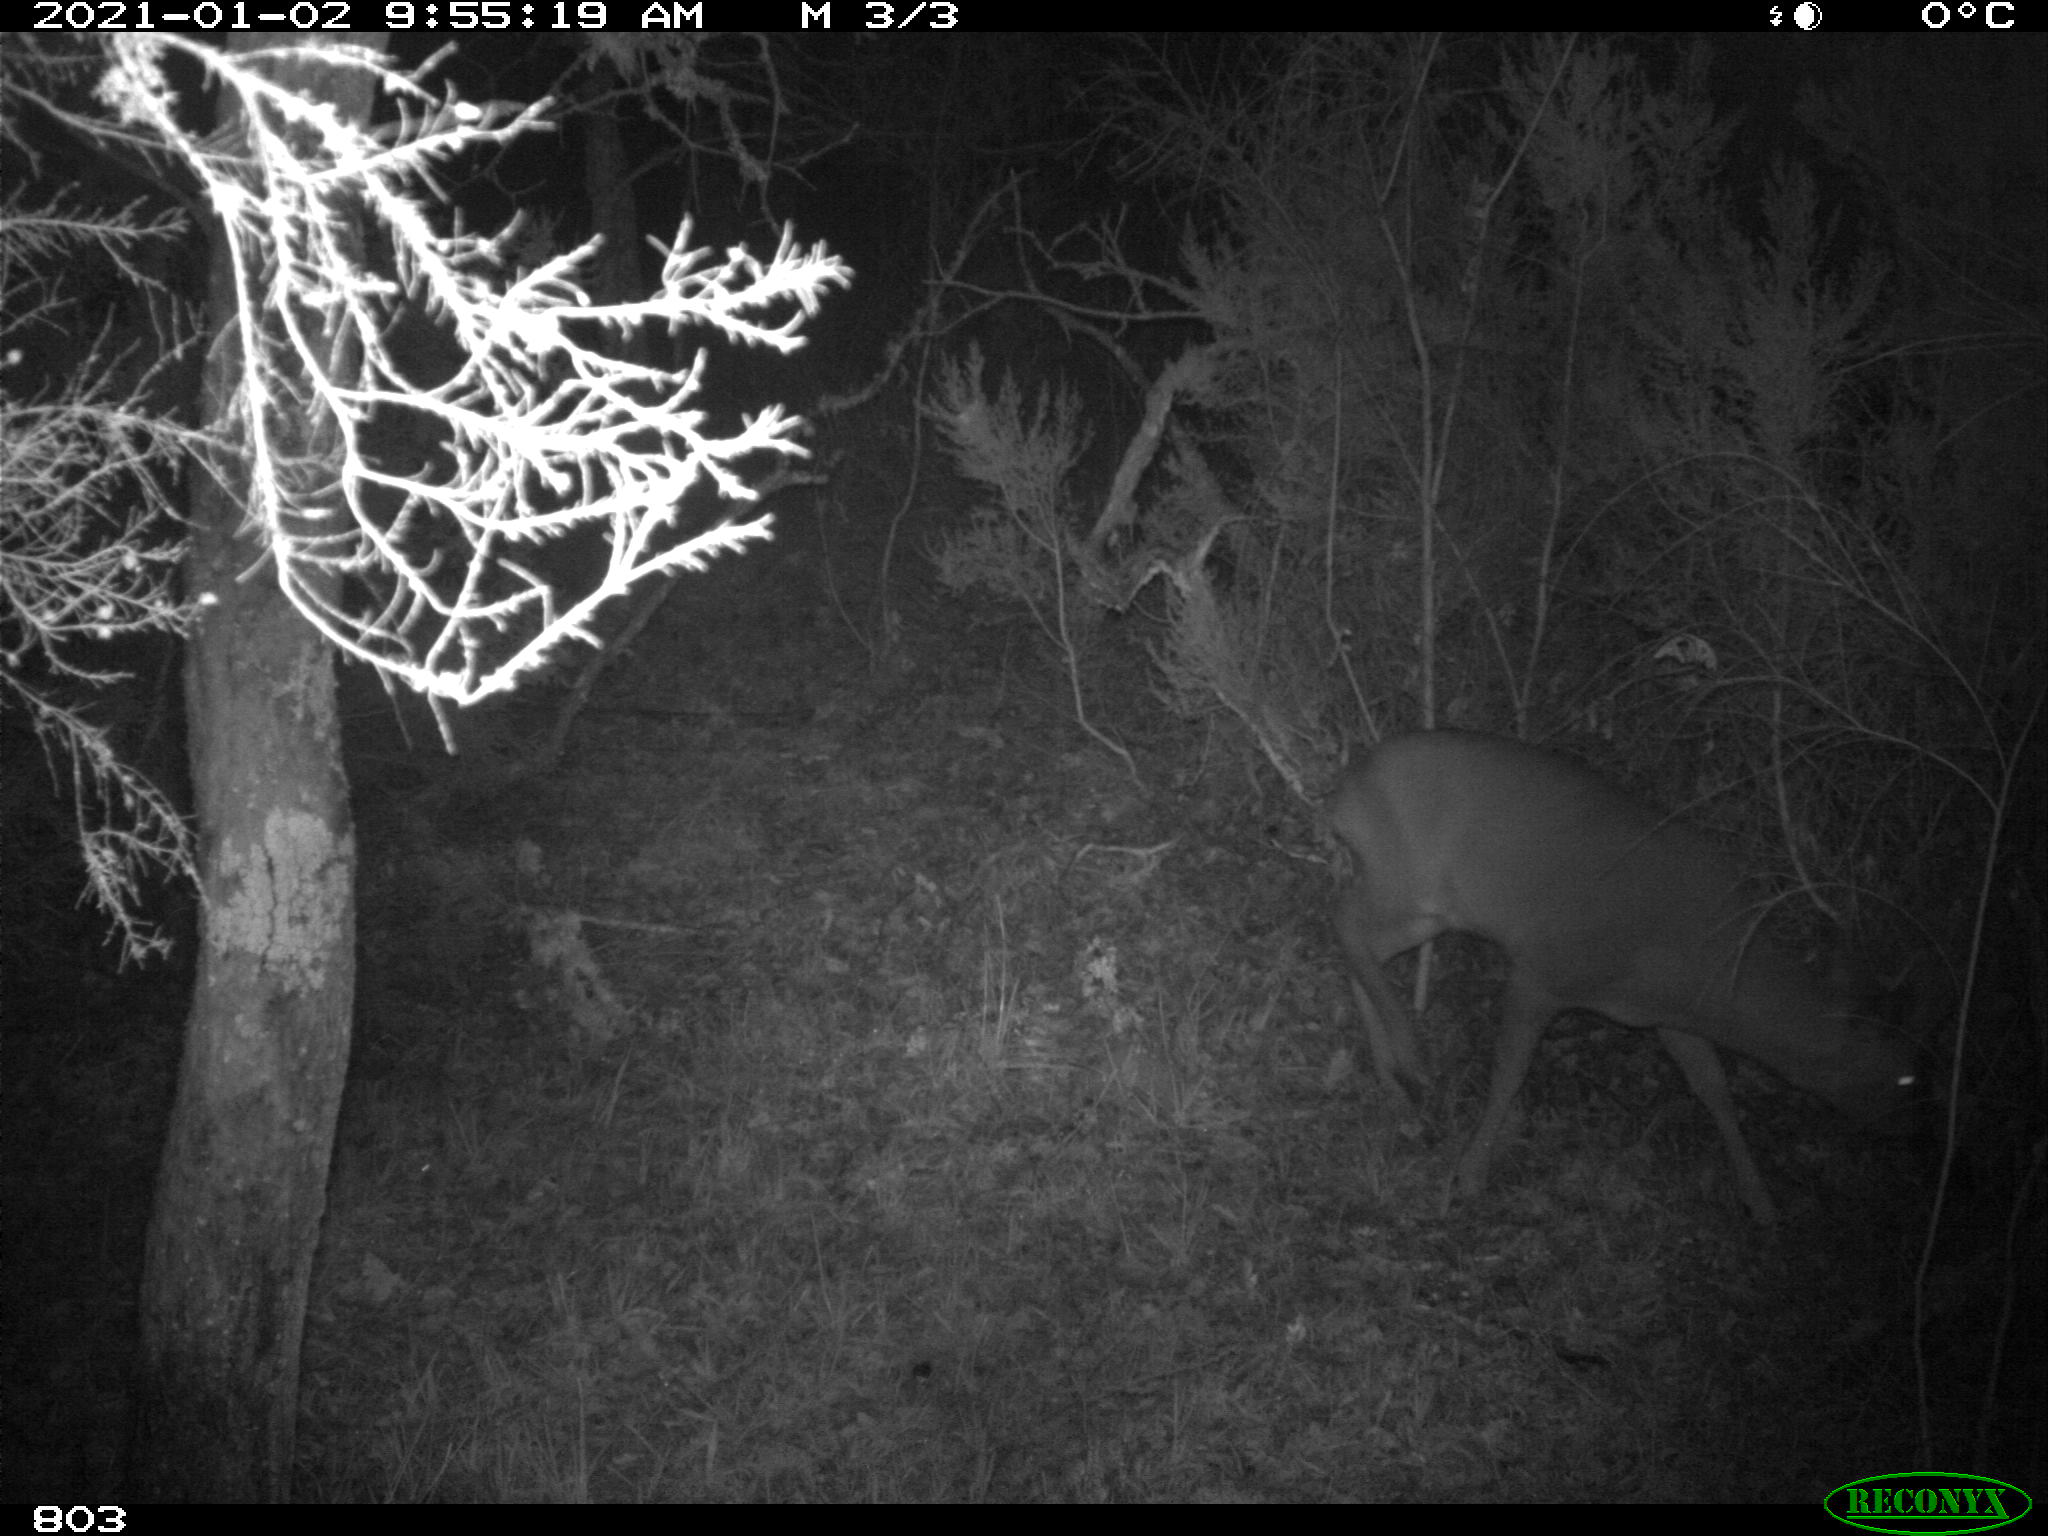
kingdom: Animalia
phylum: Chordata
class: Mammalia
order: Artiodactyla
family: Cervidae
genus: Capreolus
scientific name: Capreolus capreolus
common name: Western roe deer
